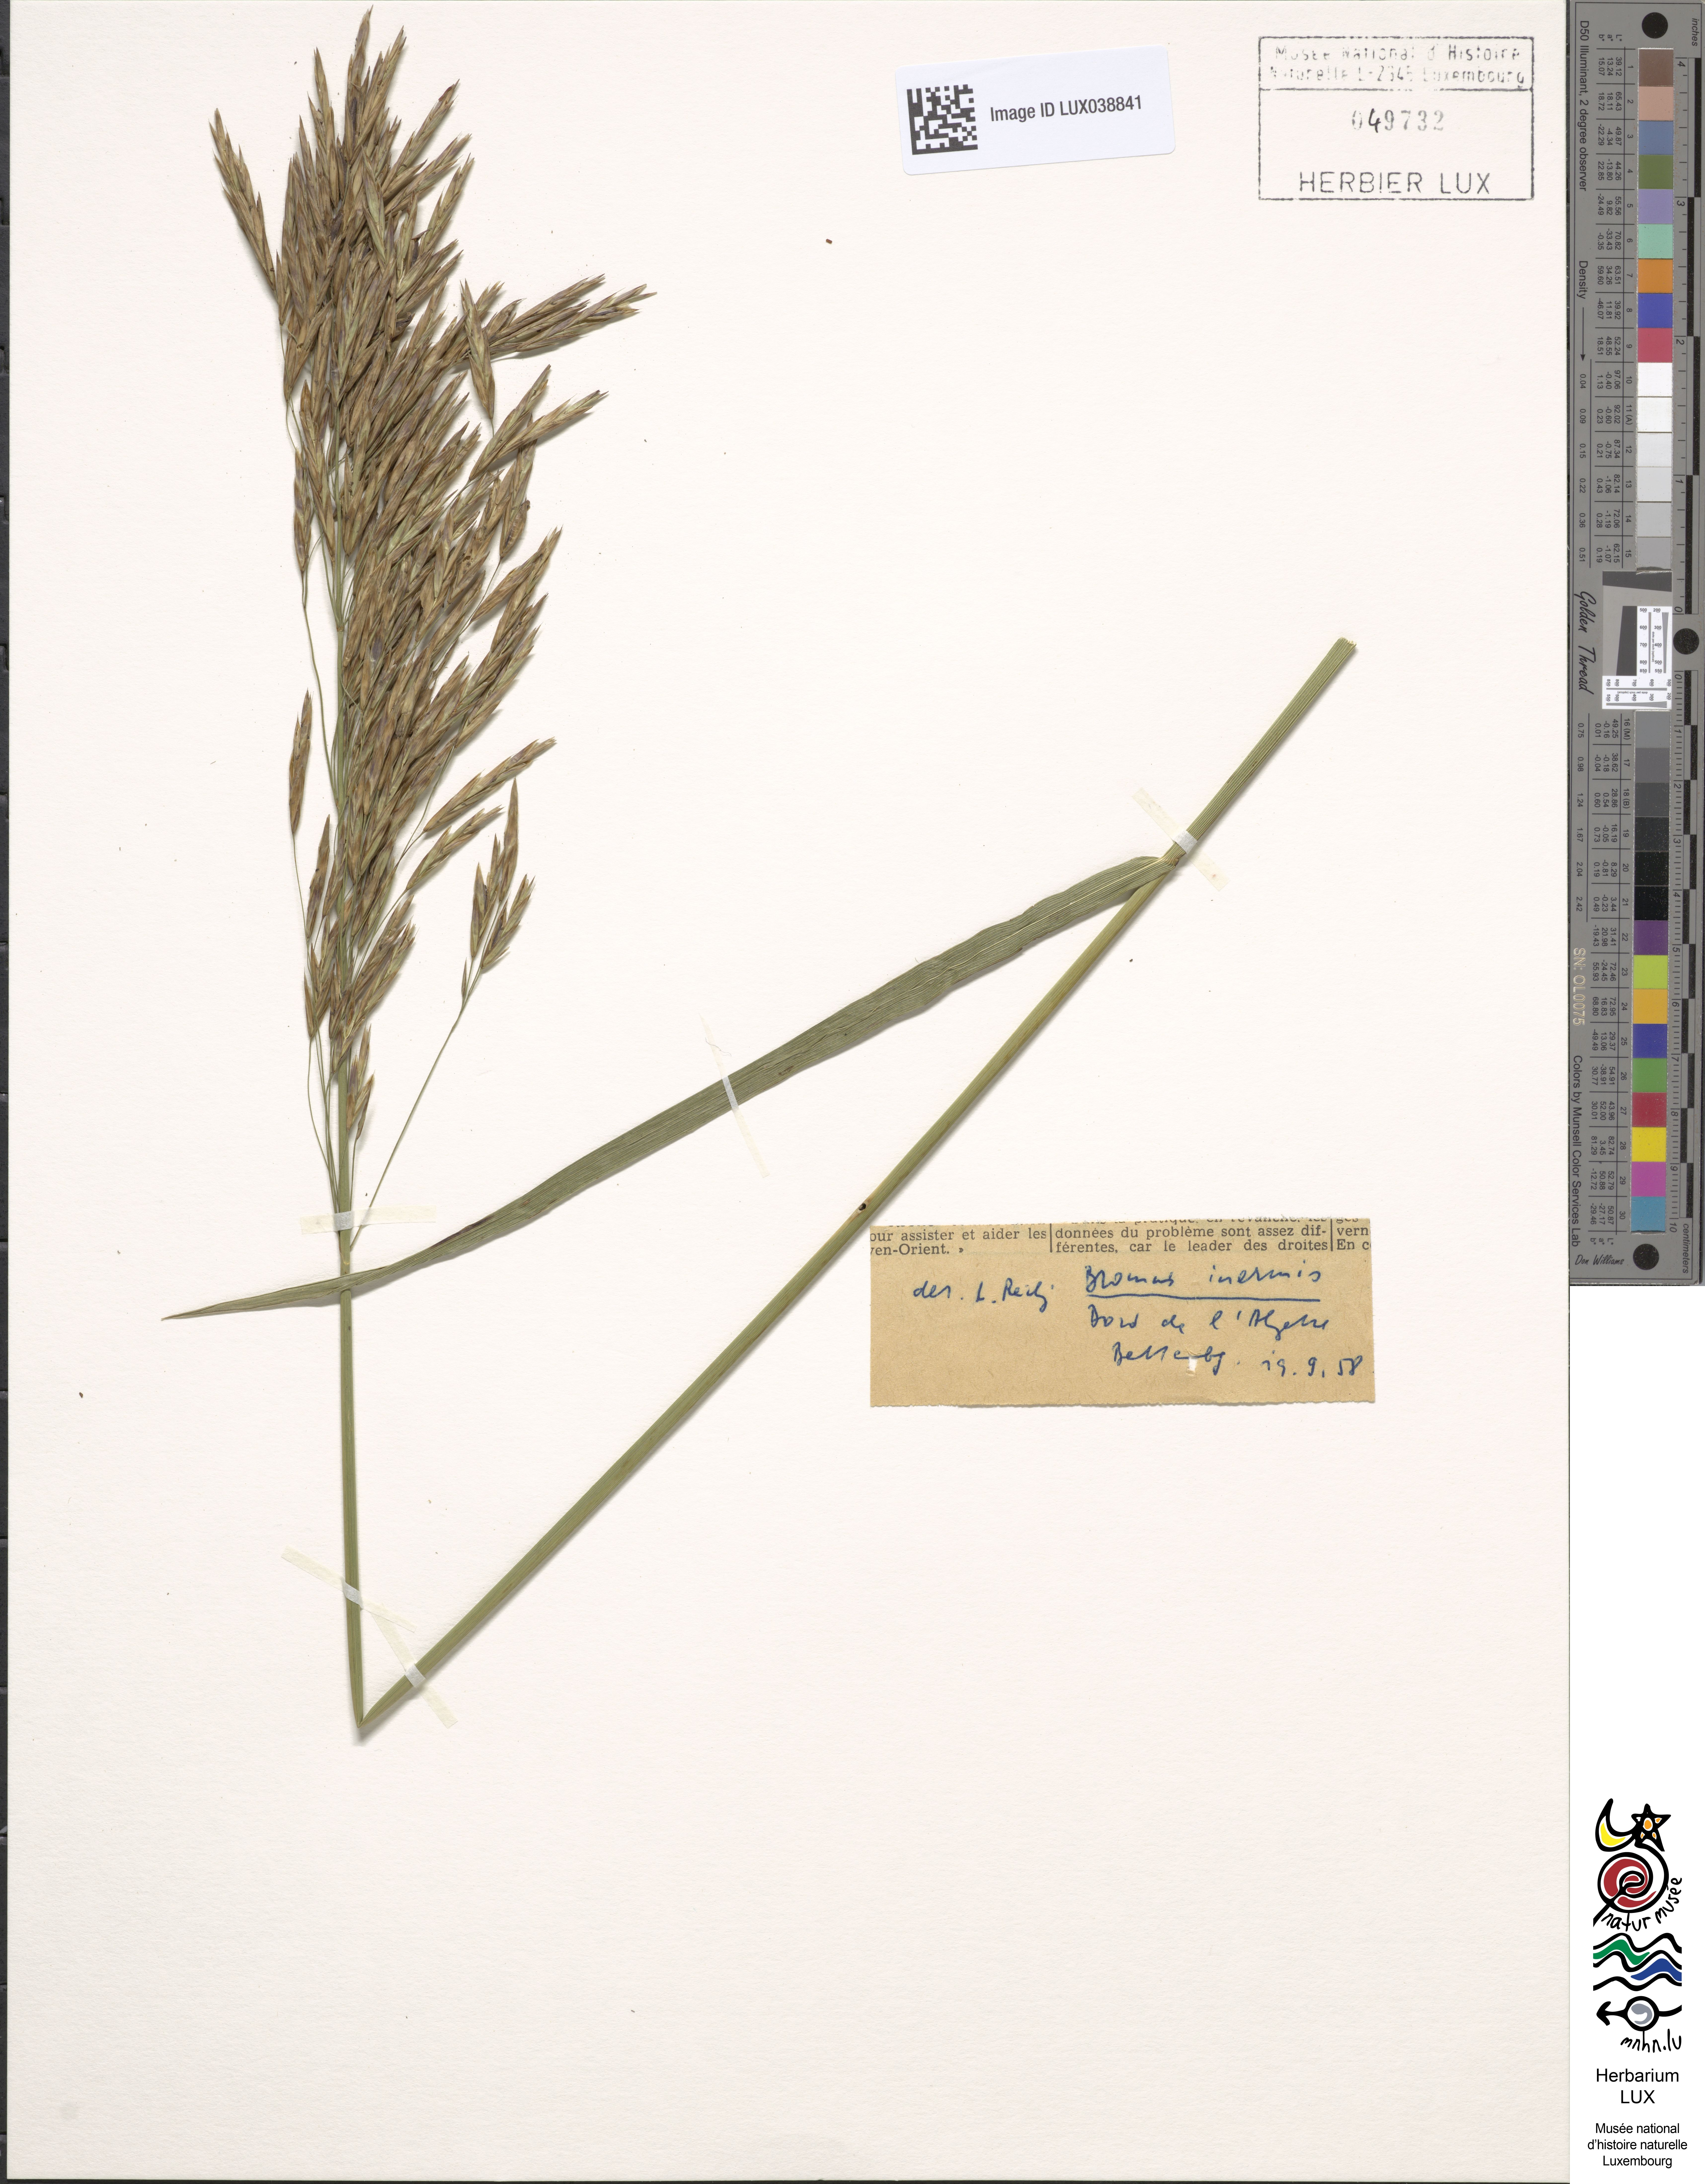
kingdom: Plantae
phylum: Tracheophyta
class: Liliopsida
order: Poales
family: Poaceae
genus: Bromus
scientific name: Bromus inermis
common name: Smooth brome
